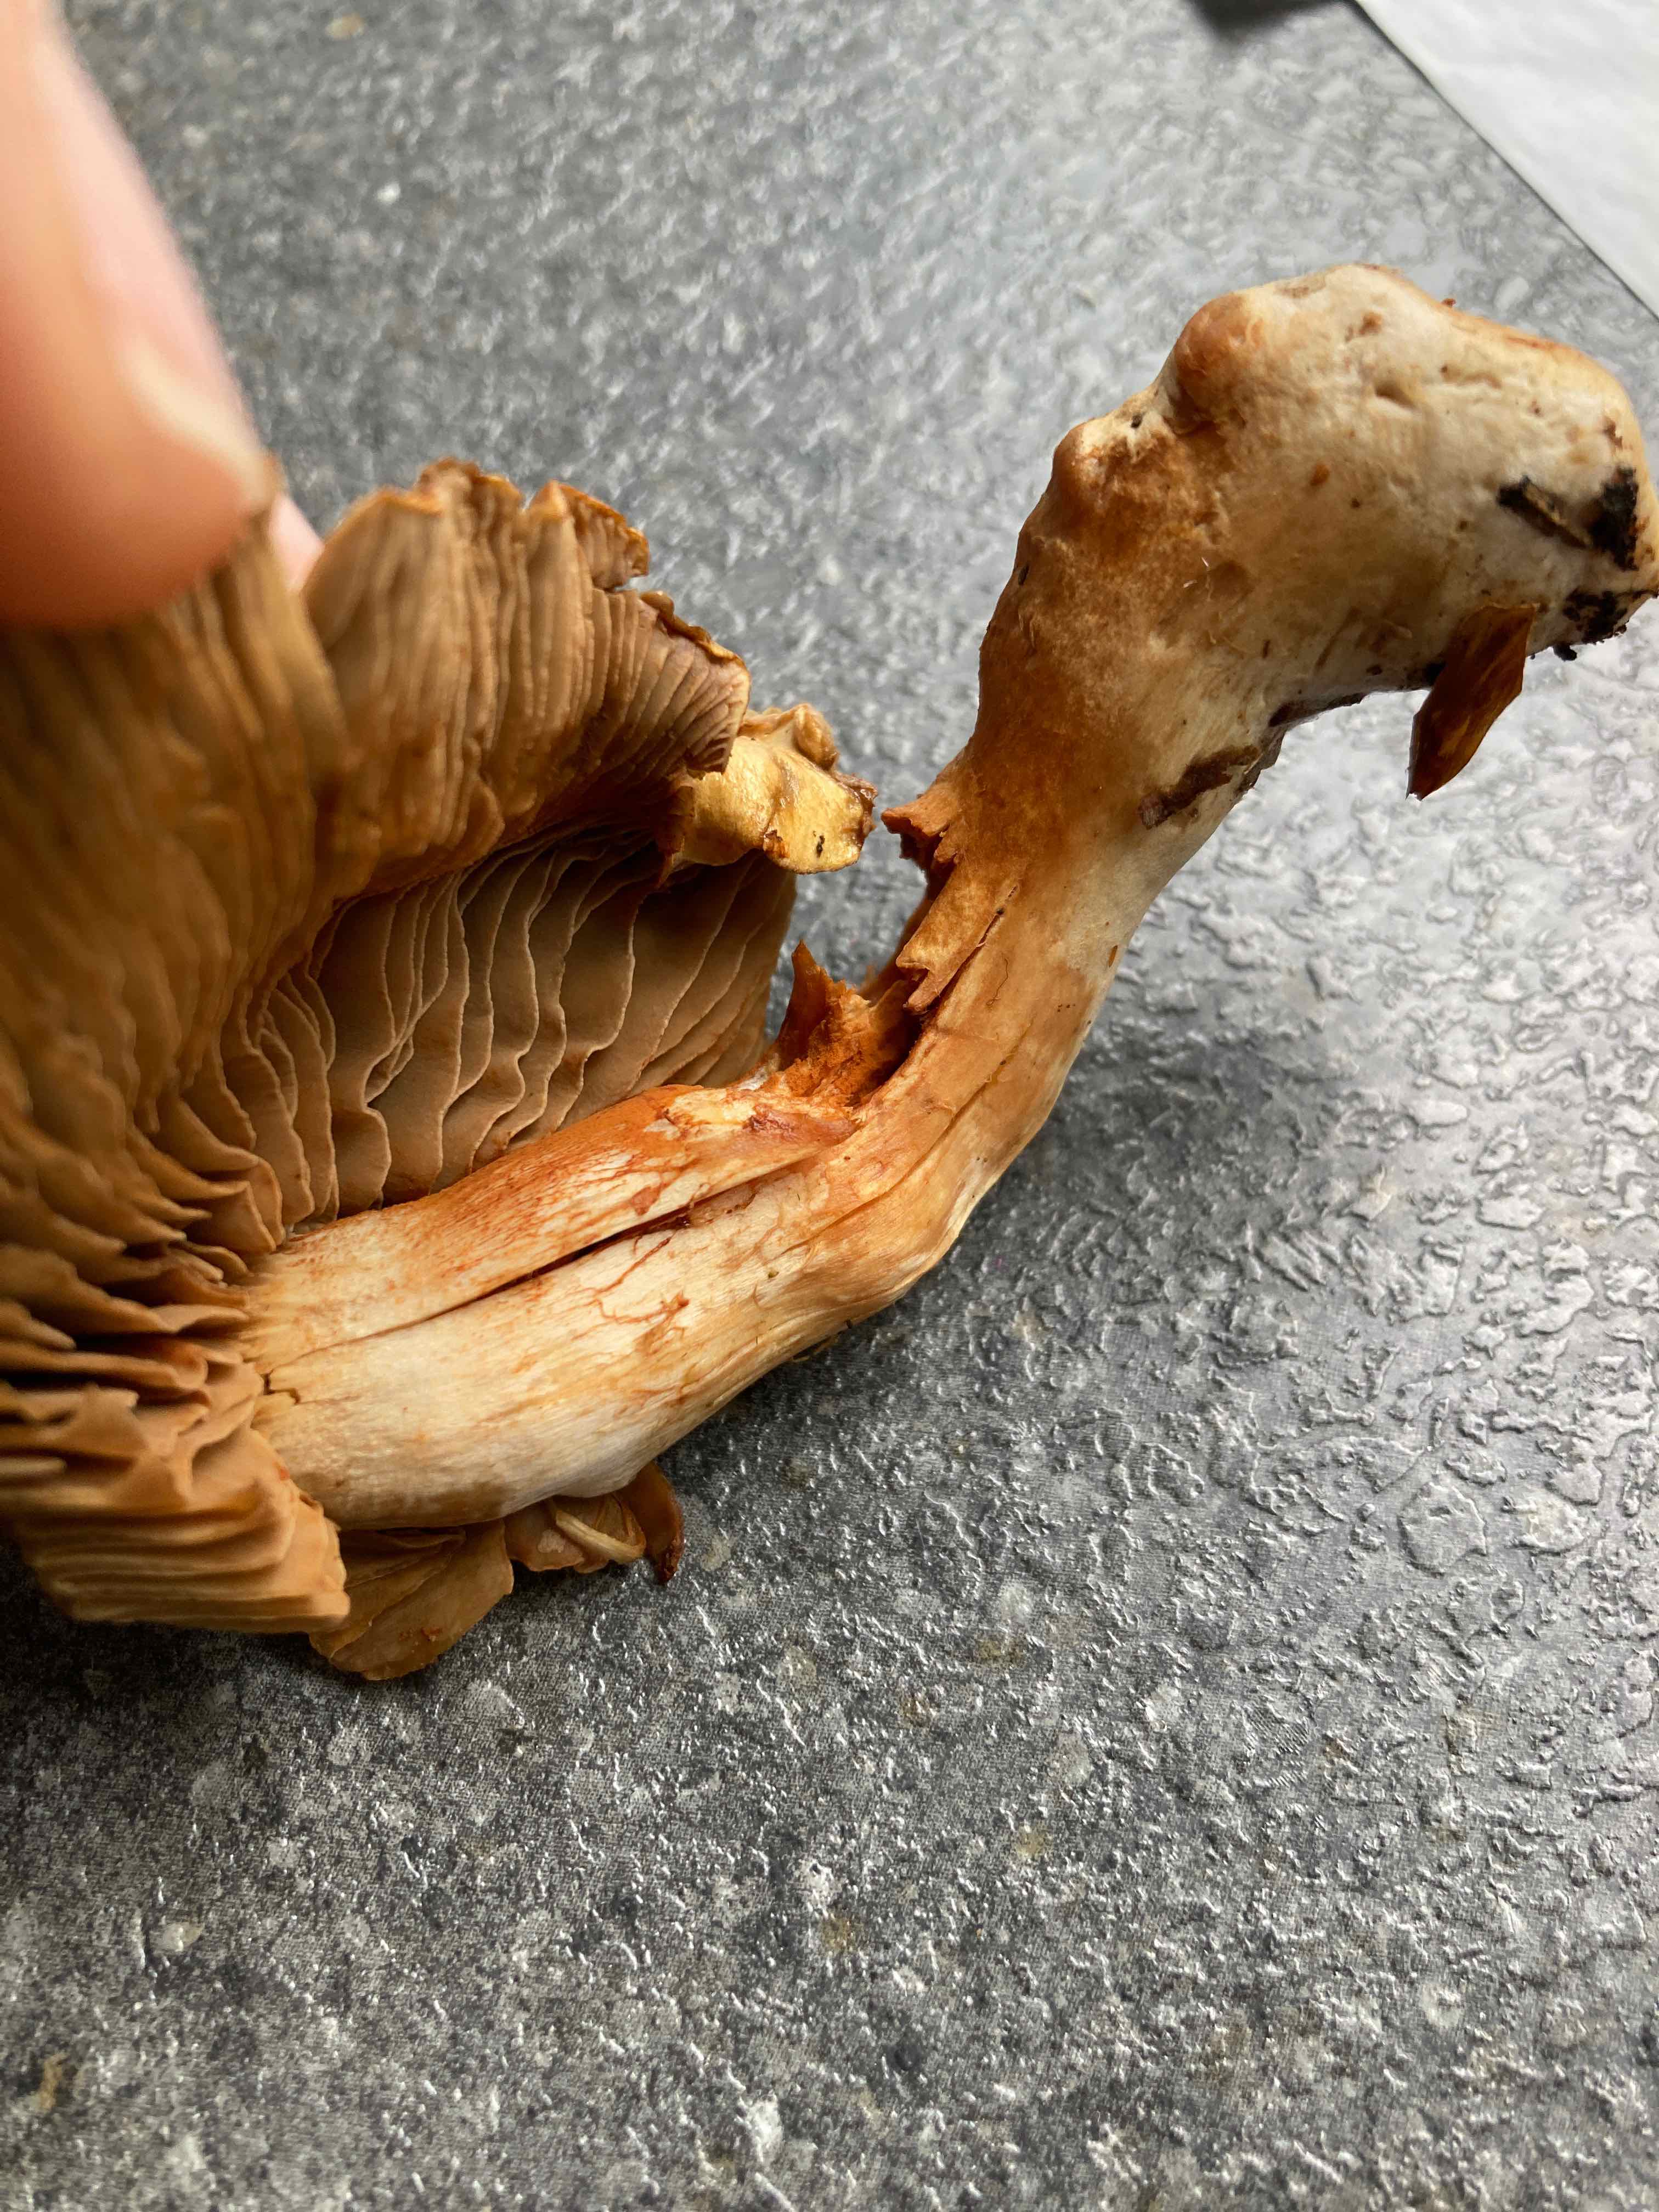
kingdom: Fungi
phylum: Basidiomycota
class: Agaricomycetes
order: Agaricales
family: Cortinariaceae
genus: Cortinarius
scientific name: Cortinarius subtortus
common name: olivengul slørhat
